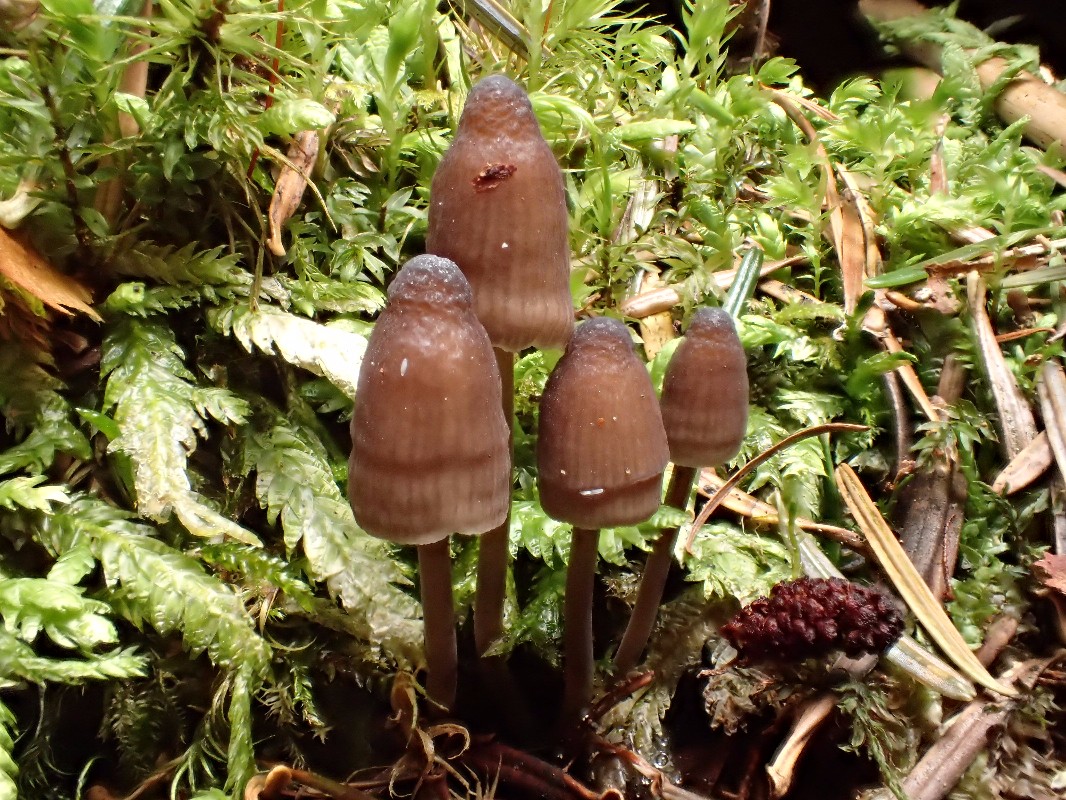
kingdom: Fungi
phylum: Basidiomycota
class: Agaricomycetes
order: Agaricales
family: Mycenaceae
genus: Mycena
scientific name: Mycena silvae-nigrae
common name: tidlig huesvamp
